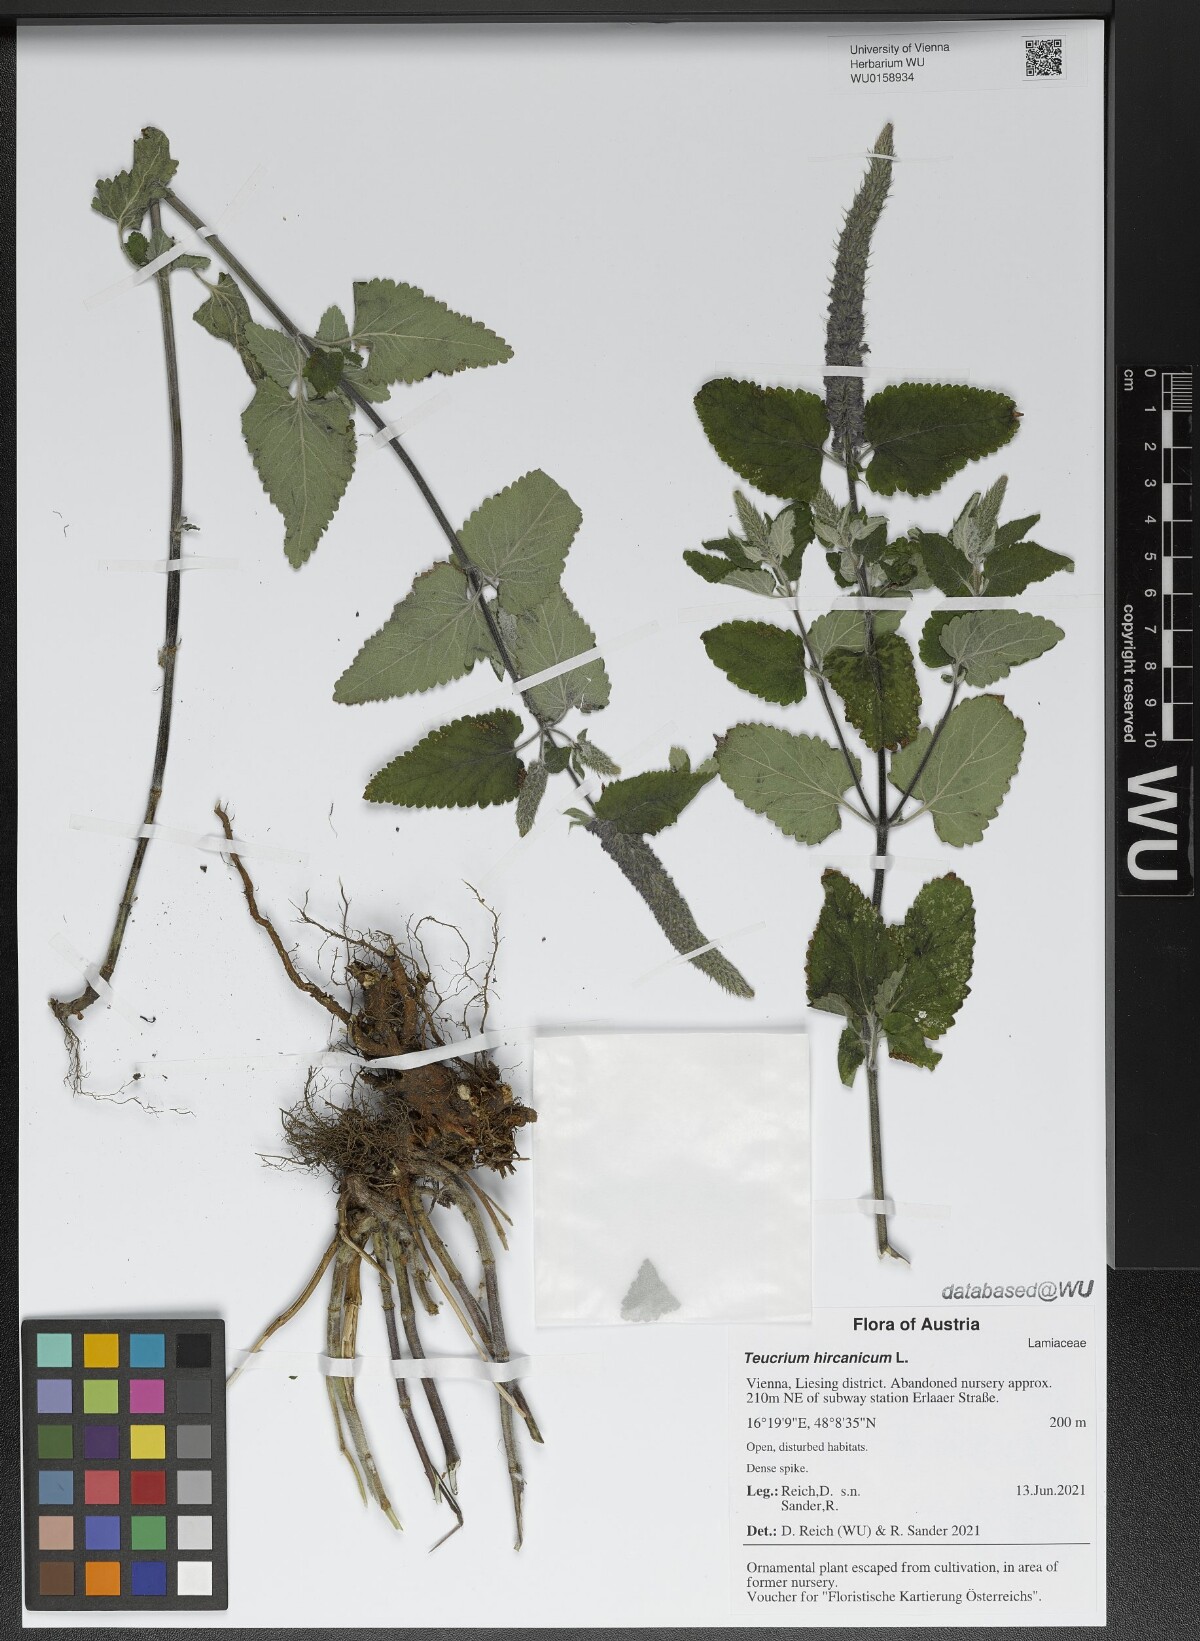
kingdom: Plantae
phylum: Tracheophyta
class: Magnoliopsida
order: Lamiales
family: Lamiaceae
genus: Teucrium
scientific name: Teucrium hircanicum
